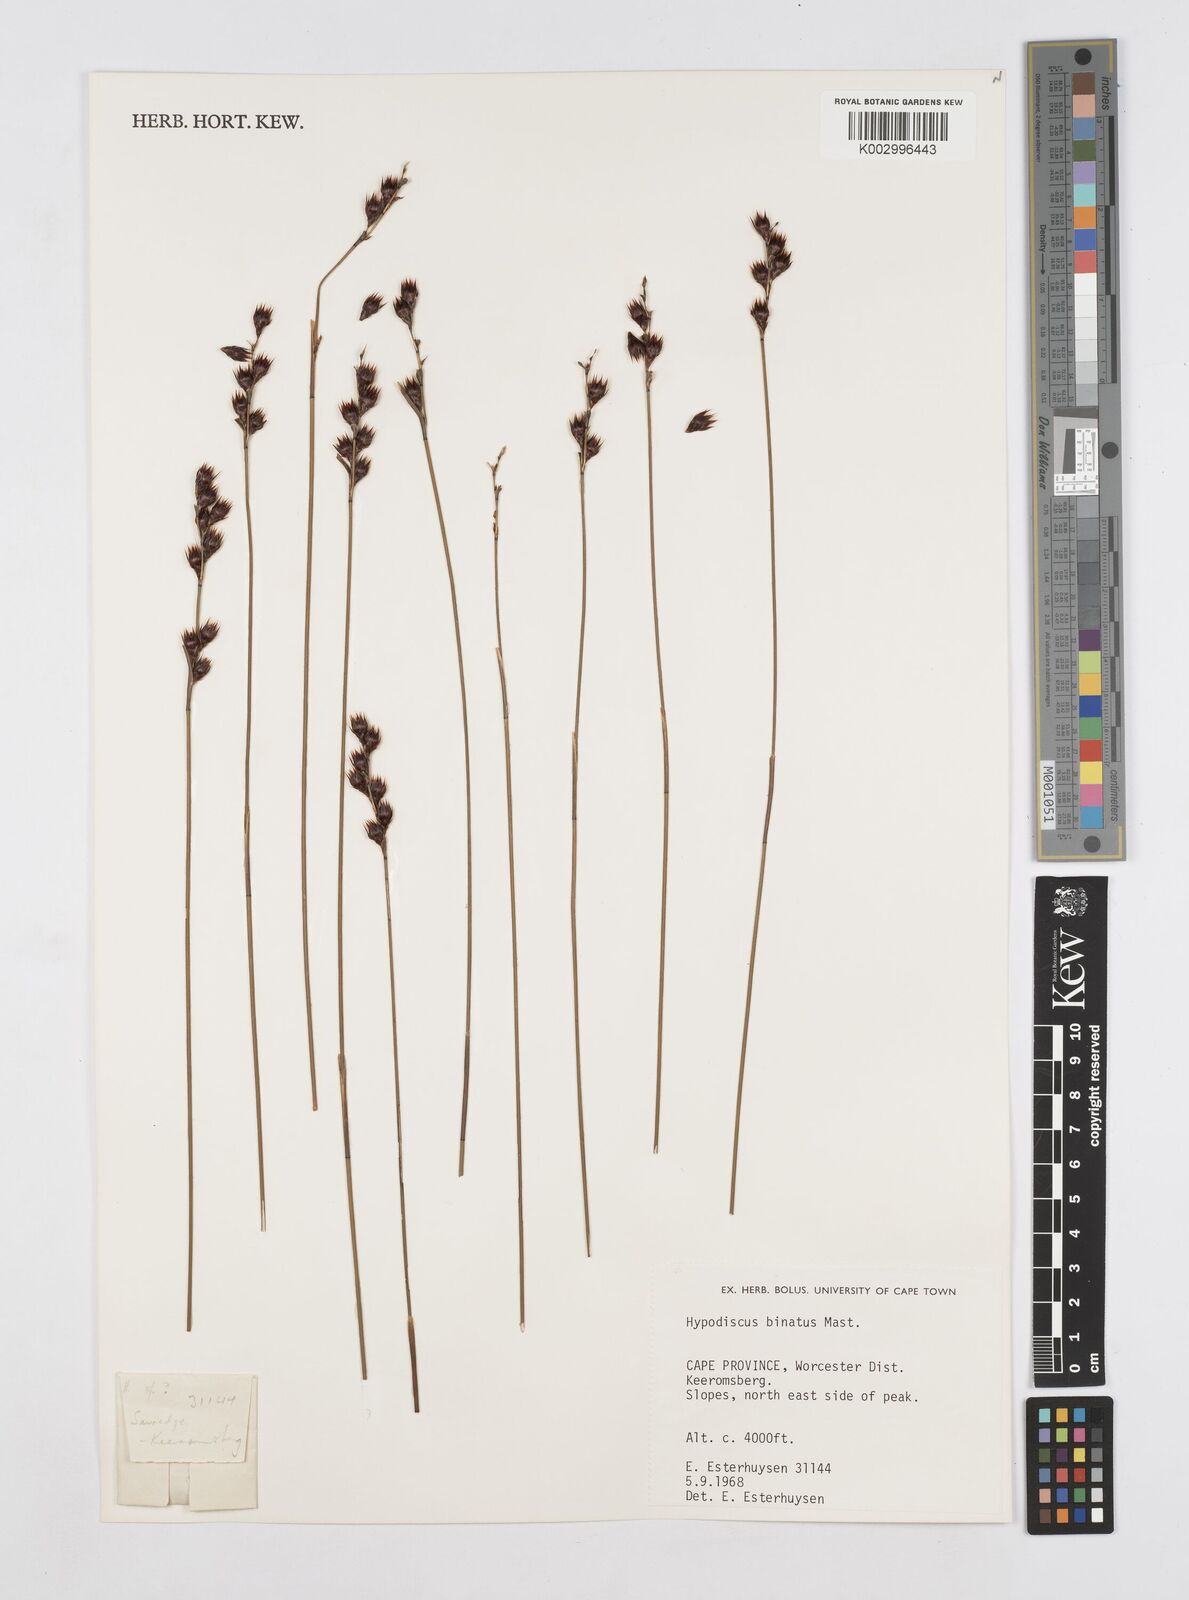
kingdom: Plantae
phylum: Tracheophyta
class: Liliopsida
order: Poales
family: Restionaceae
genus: Hypodiscus
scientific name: Hypodiscus laevigatus
